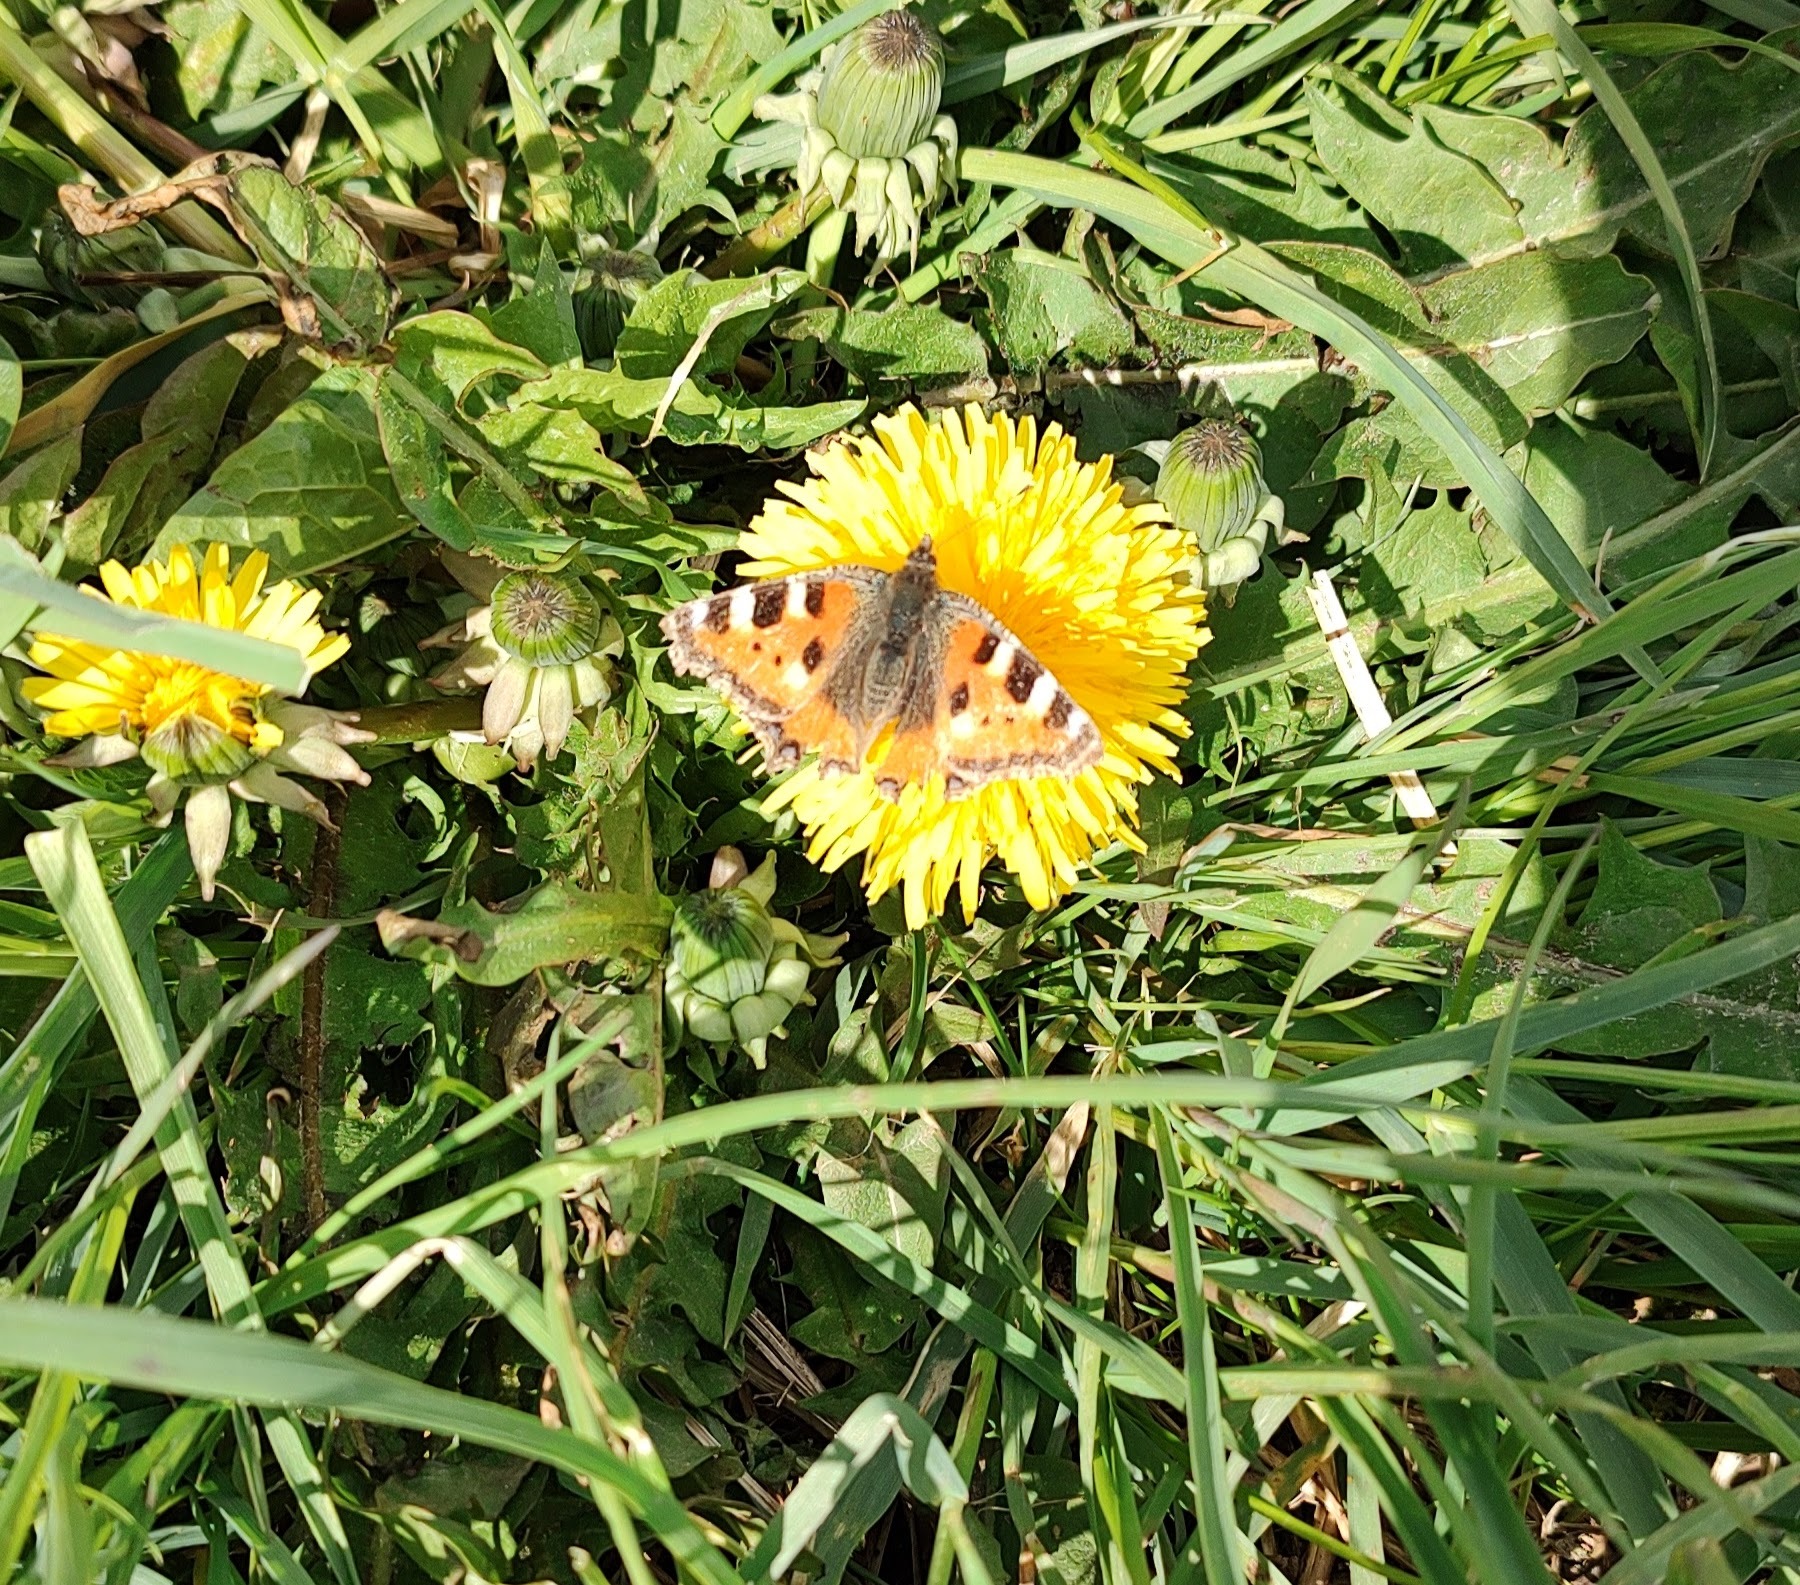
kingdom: Animalia
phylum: Arthropoda
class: Insecta
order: Lepidoptera
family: Nymphalidae
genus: Aglais
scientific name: Aglais urticae
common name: Nældens takvinge
